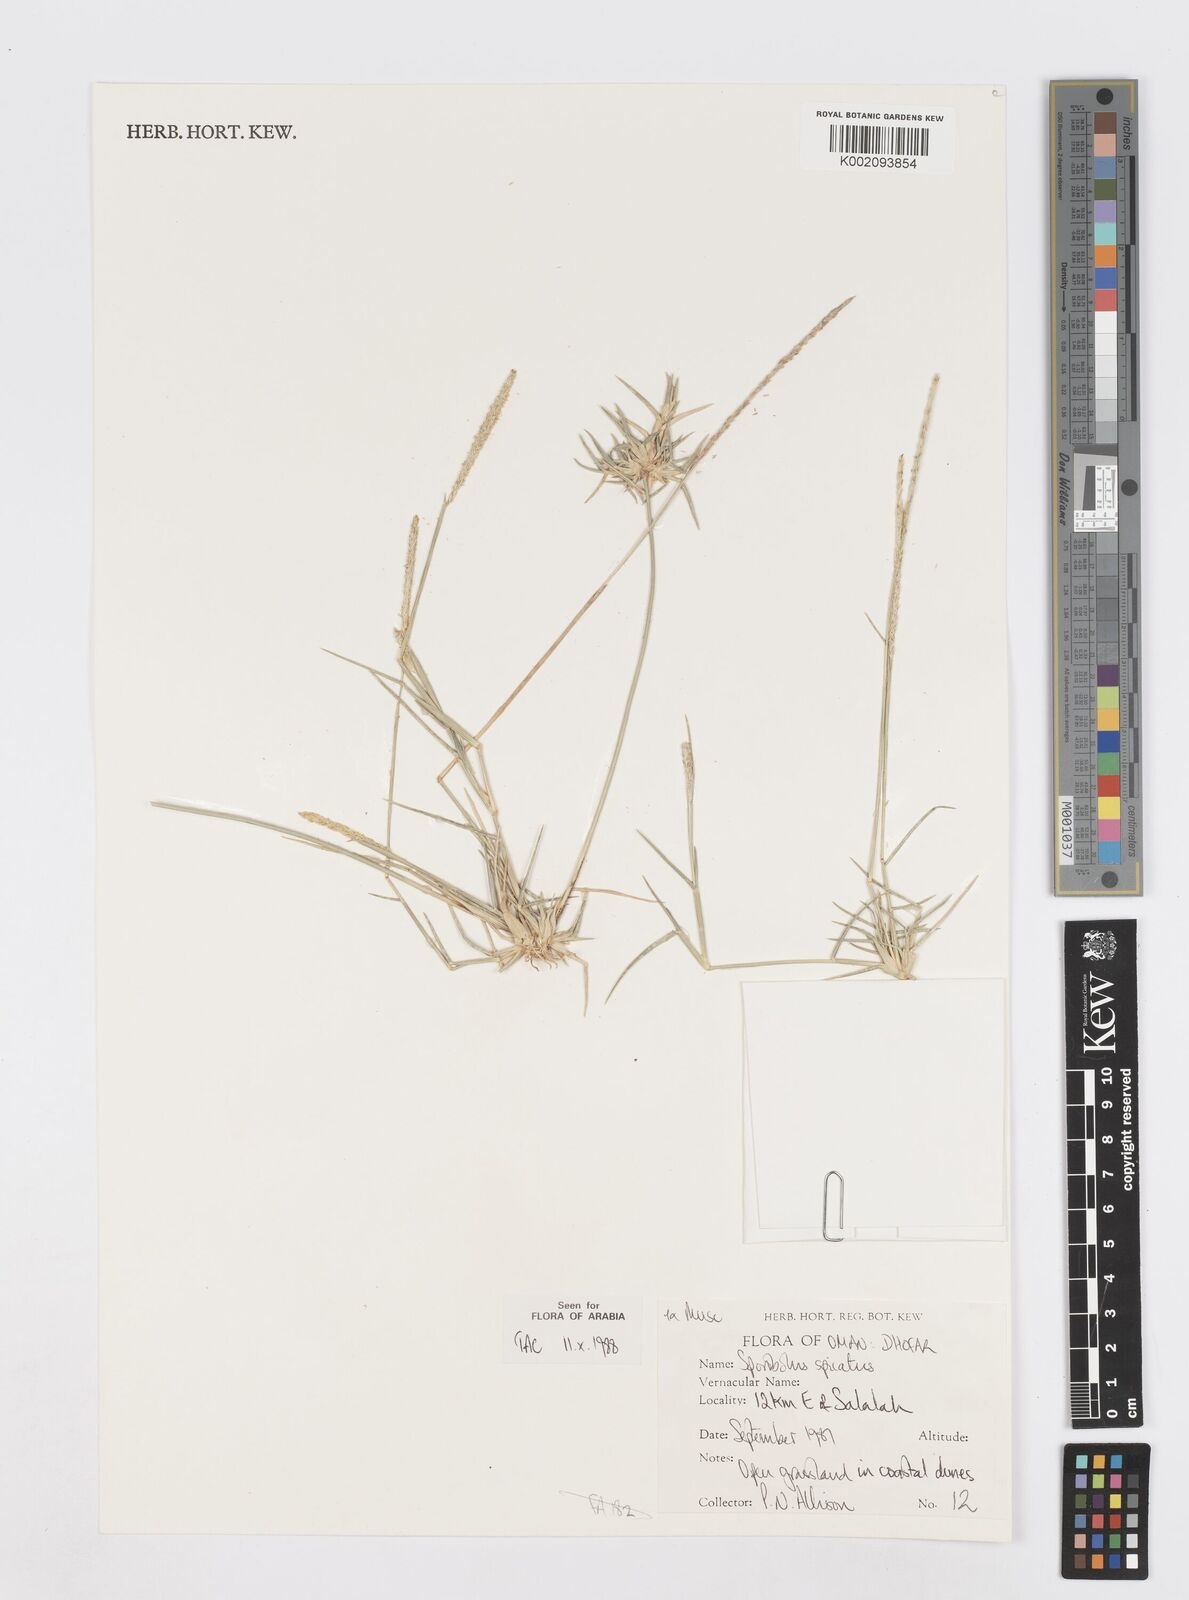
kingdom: Plantae
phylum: Tracheophyta
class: Liliopsida
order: Poales
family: Poaceae
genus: Sporobolus
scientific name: Sporobolus spicatus
